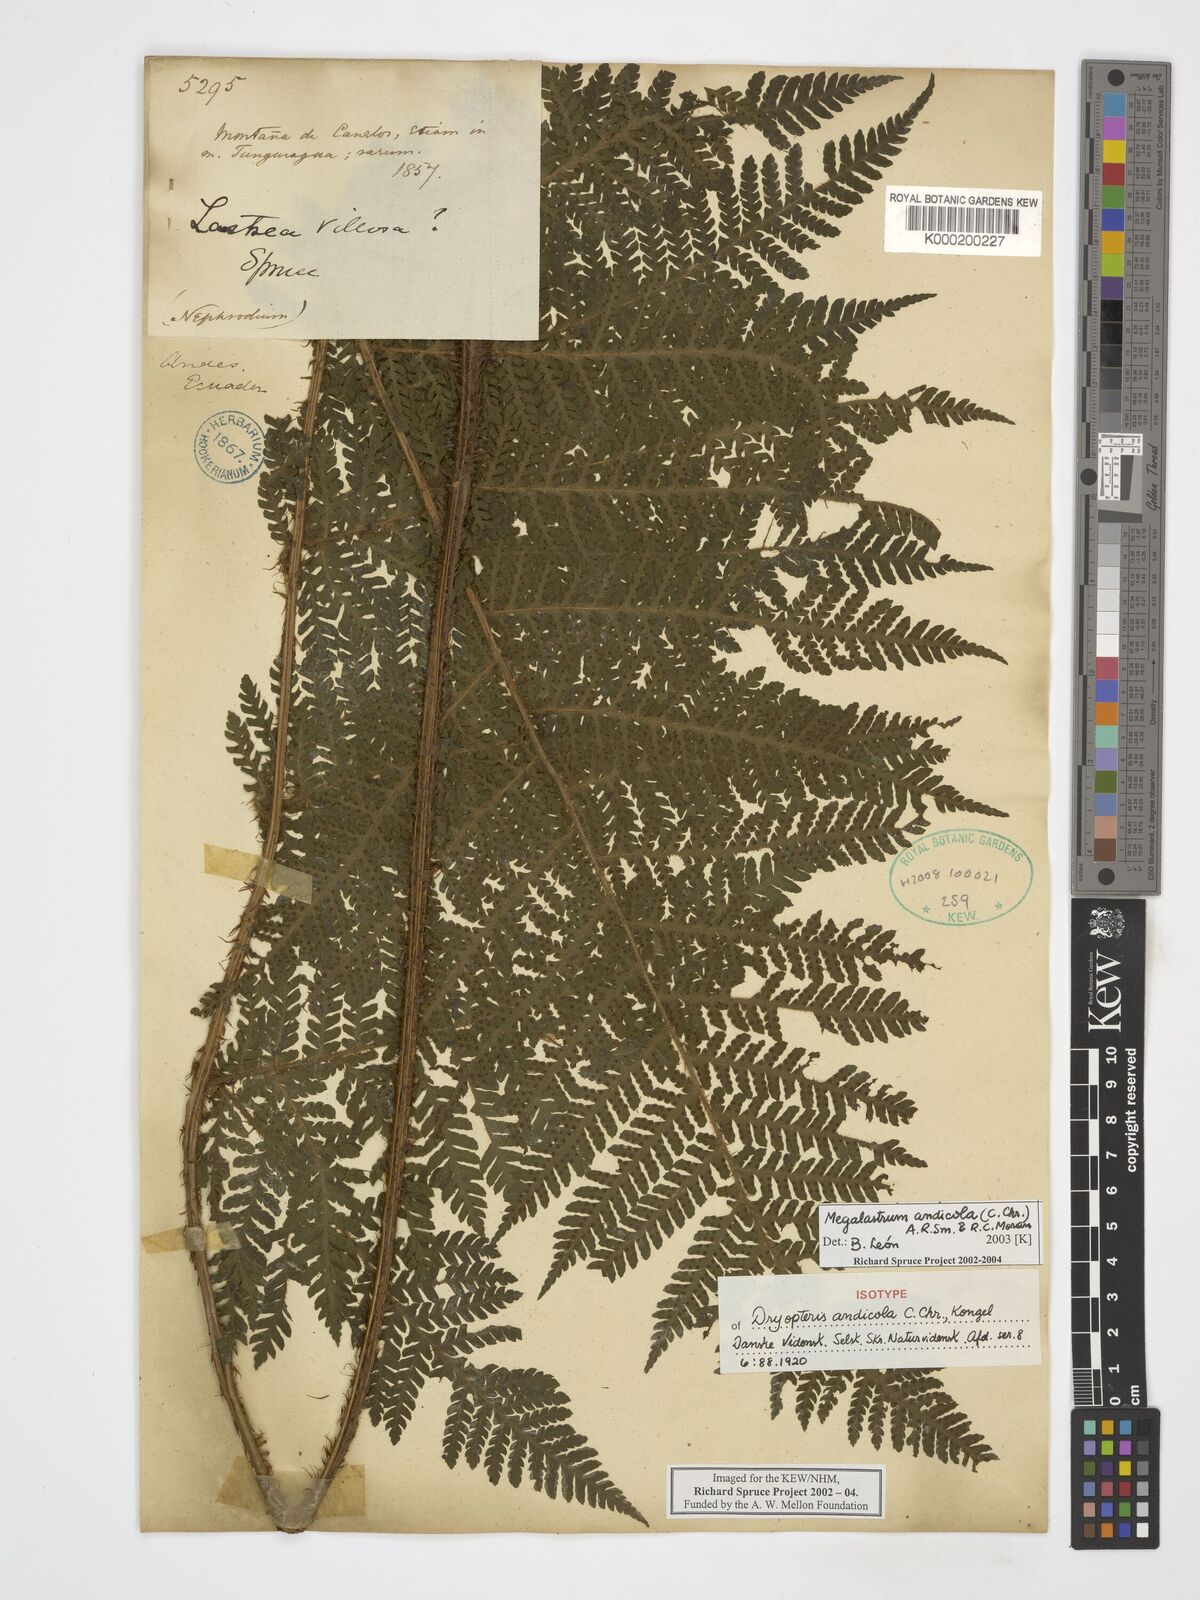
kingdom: Plantae
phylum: Tracheophyta
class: Polypodiopsida
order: Polypodiales
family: Dryopteridaceae
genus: Megalastrum
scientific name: Megalastrum andicola
